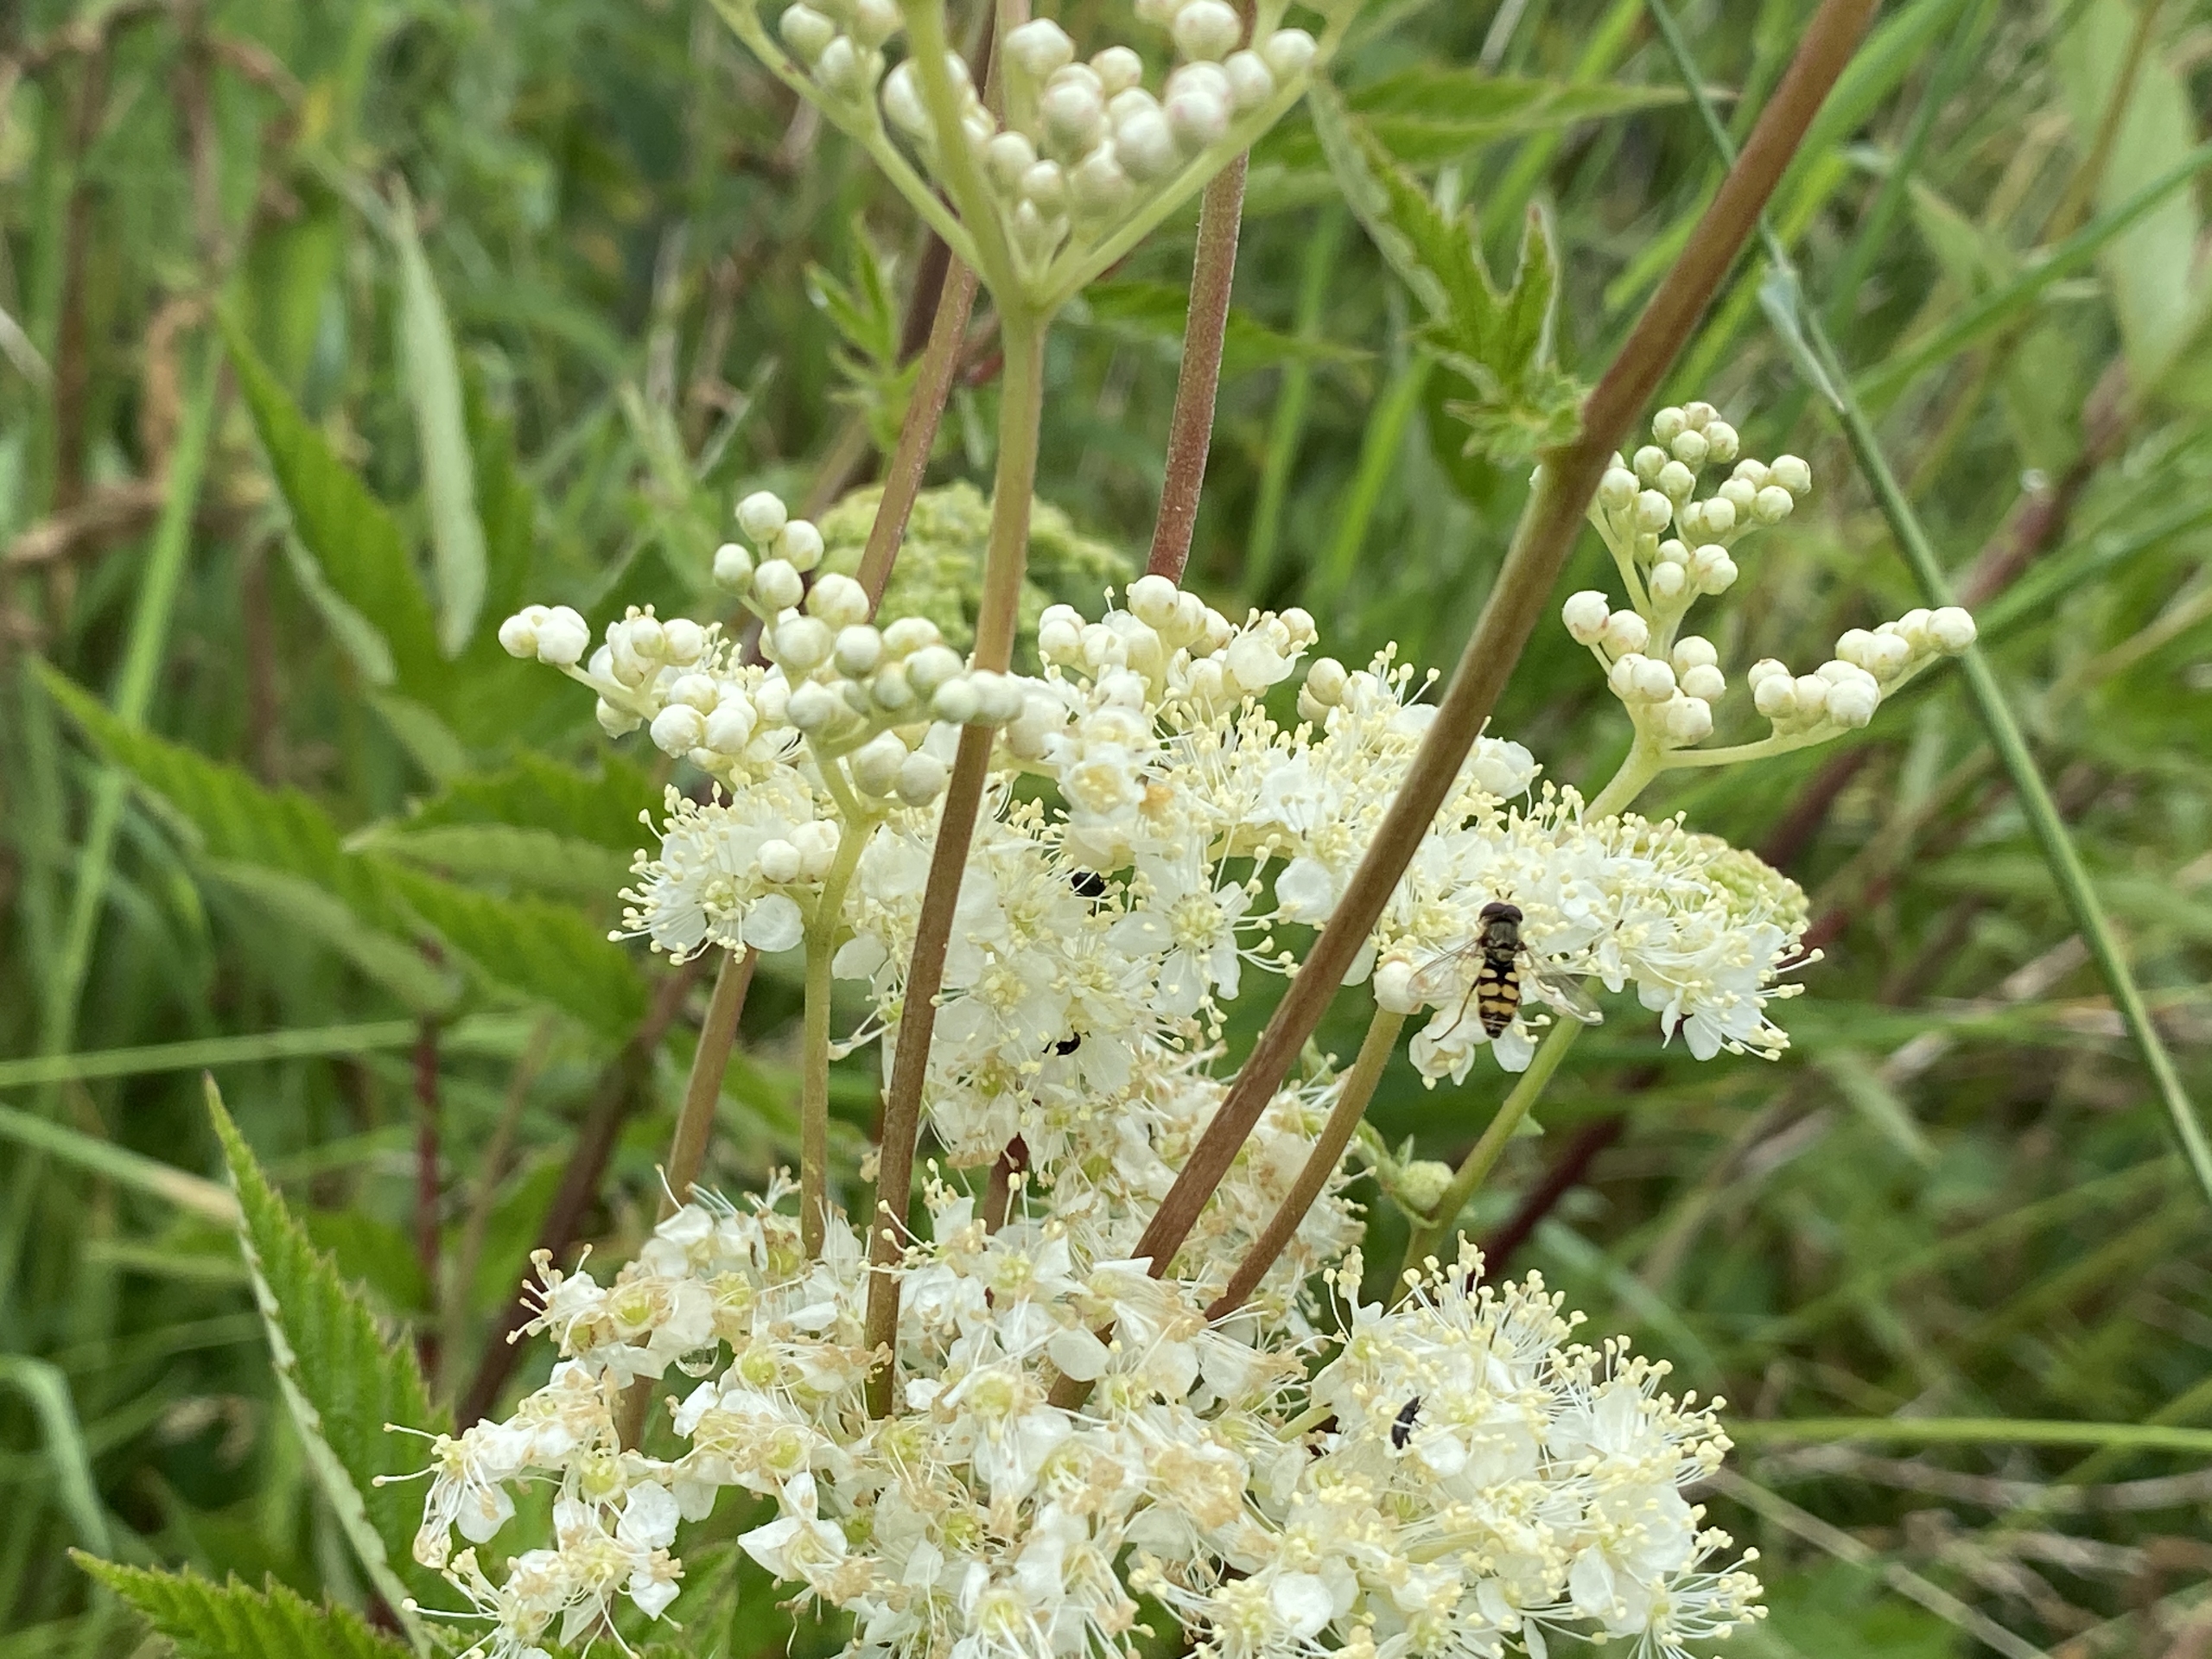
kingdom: Plantae
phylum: Tracheophyta
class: Magnoliopsida
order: Rosales
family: Rosaceae
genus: Filipendula
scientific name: Filipendula ulmaria
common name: Almindelig mjødurt
